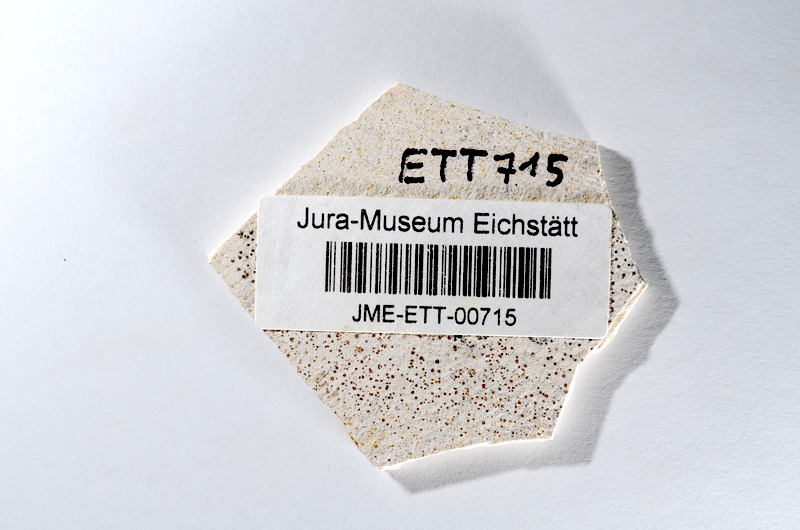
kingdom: Animalia
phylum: Chordata
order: Salmoniformes
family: Orthogonikleithridae
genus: Orthogonikleithrus
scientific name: Orthogonikleithrus hoelli
